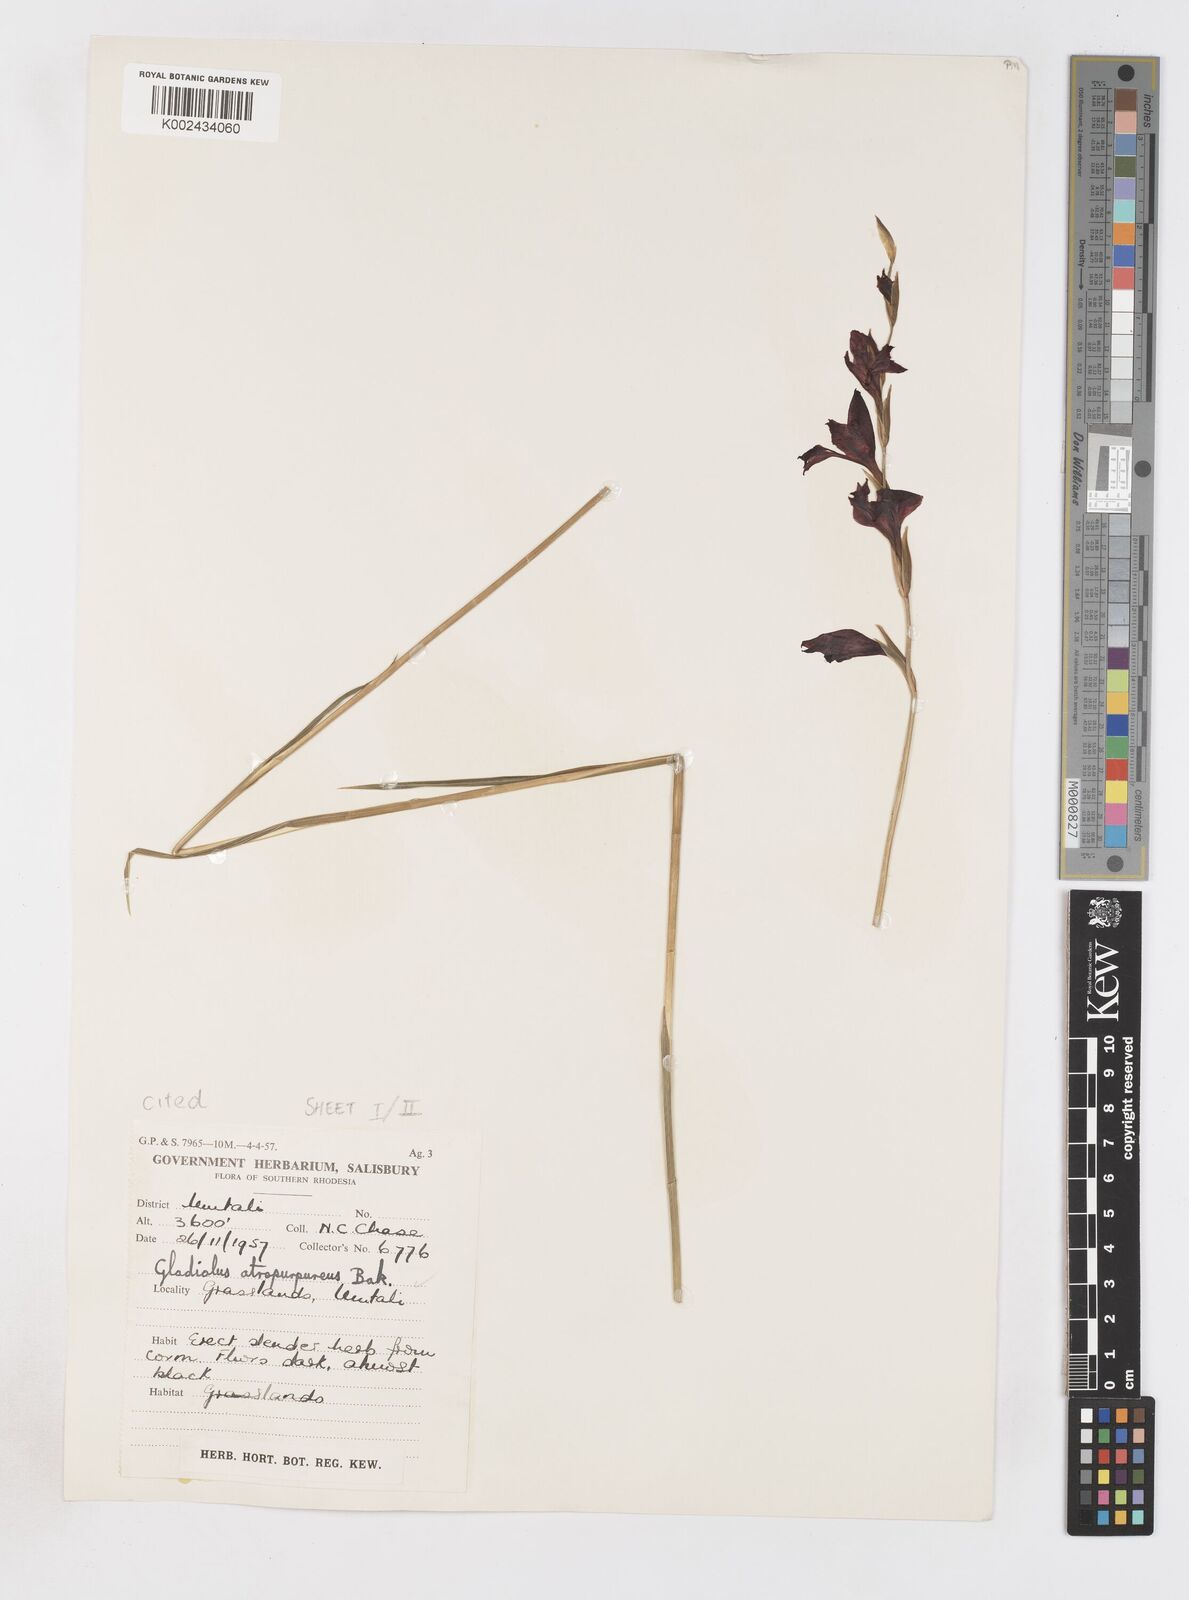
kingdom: Plantae
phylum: Tracheophyta
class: Liliopsida
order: Asparagales
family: Iridaceae
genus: Gladiolus
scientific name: Gladiolus atropurpureus
